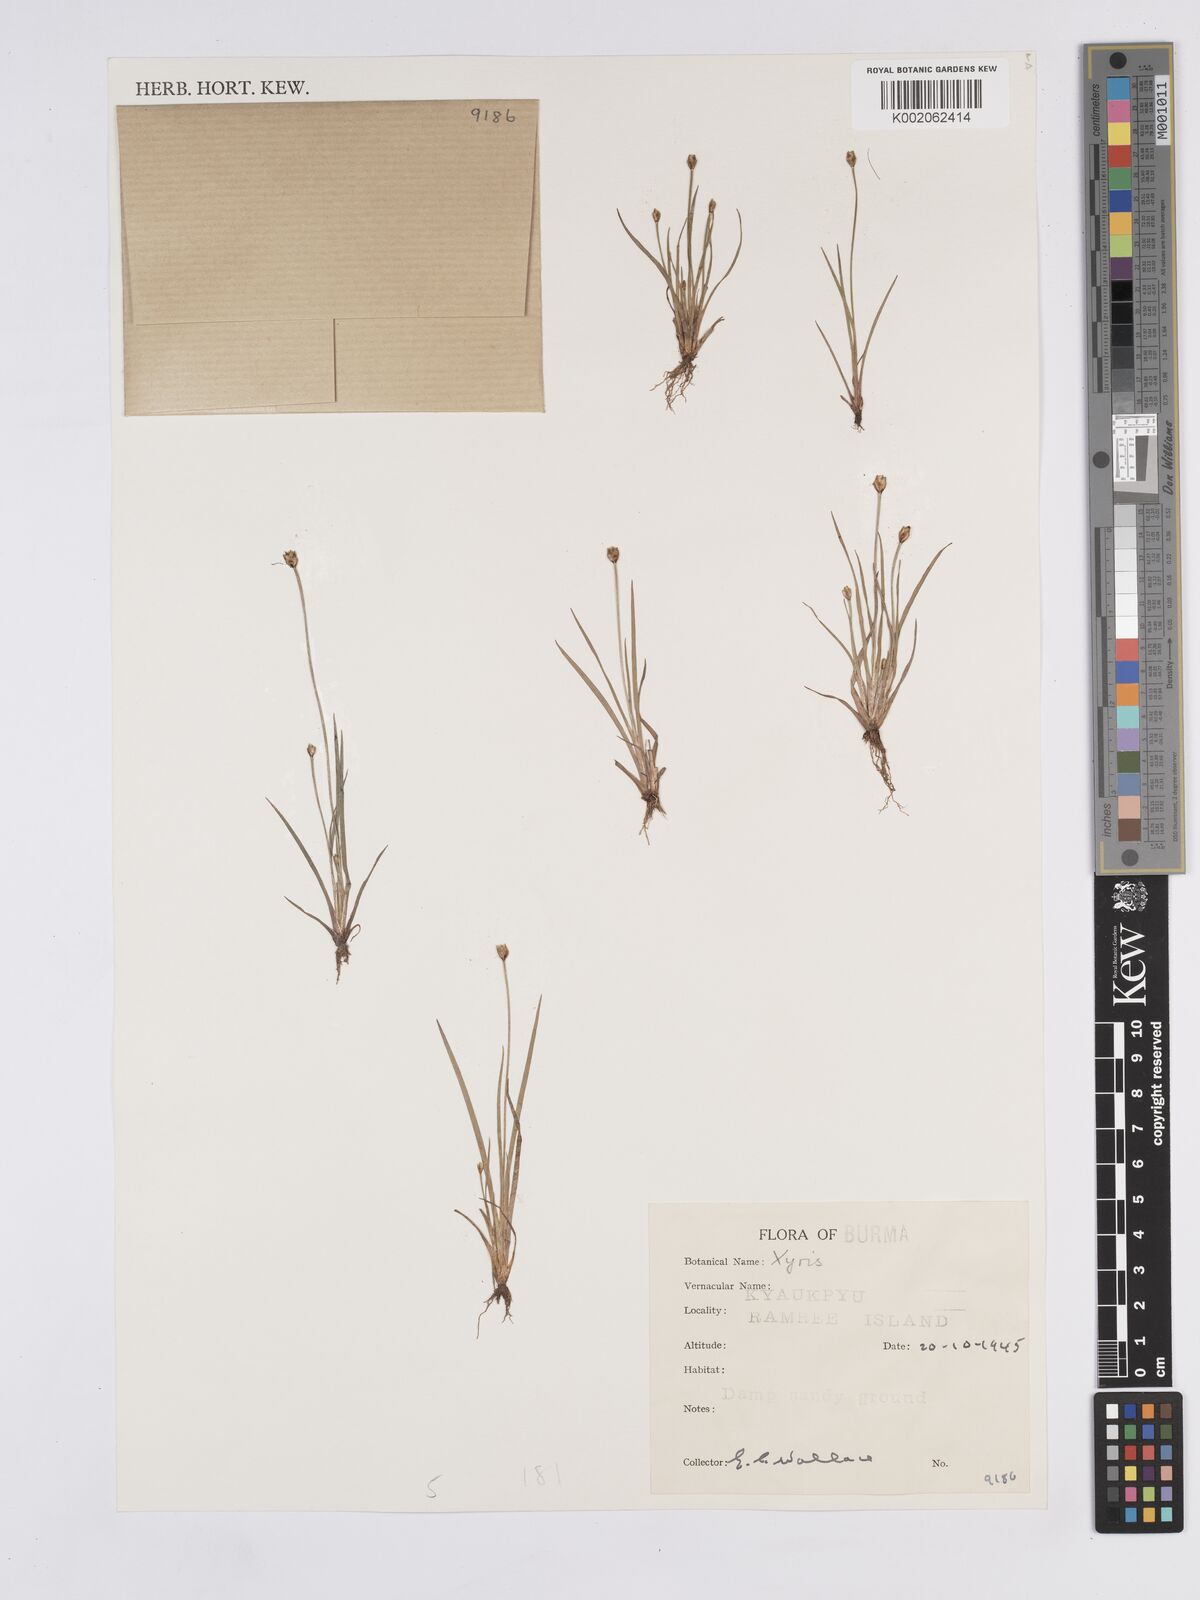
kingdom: Plantae
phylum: Tracheophyta
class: Liliopsida
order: Poales
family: Xyridaceae
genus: Xyris
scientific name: Xyris
